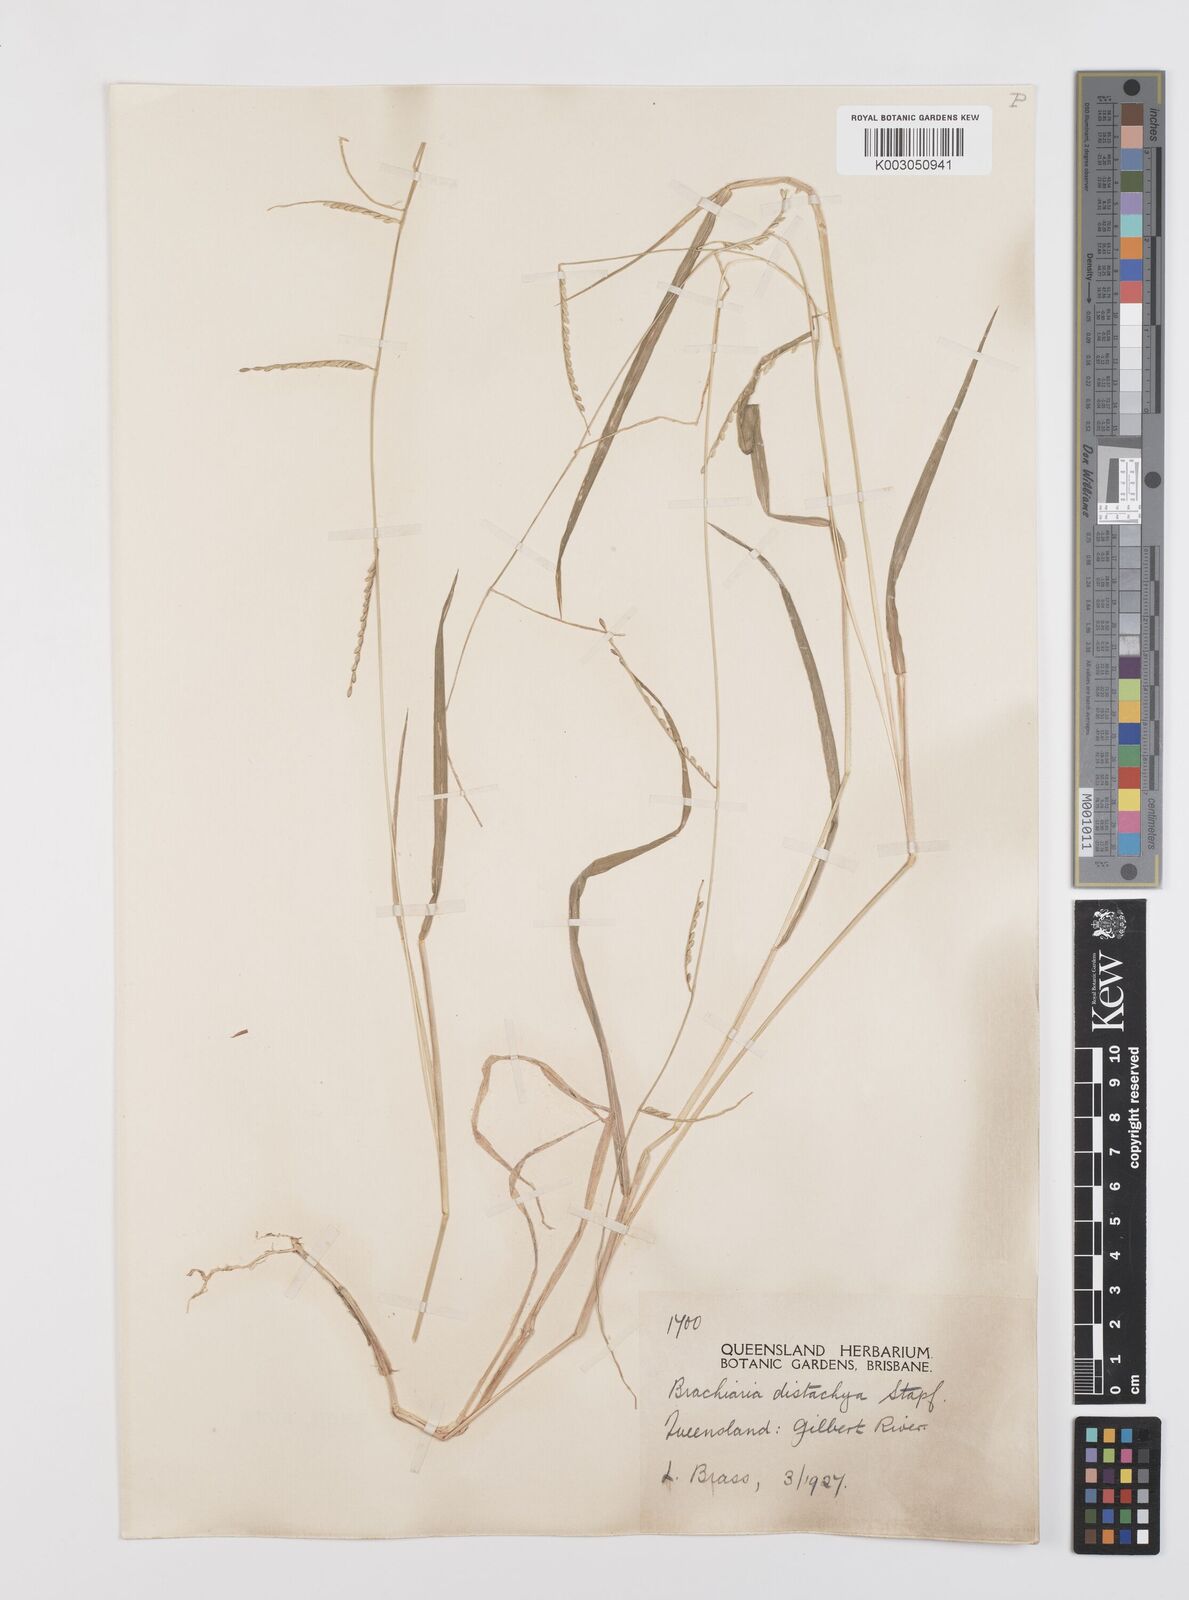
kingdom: Plantae
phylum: Tracheophyta
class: Liliopsida
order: Poales
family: Poaceae
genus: Urochloa
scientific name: Urochloa subquadripara
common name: Armgrass millet
